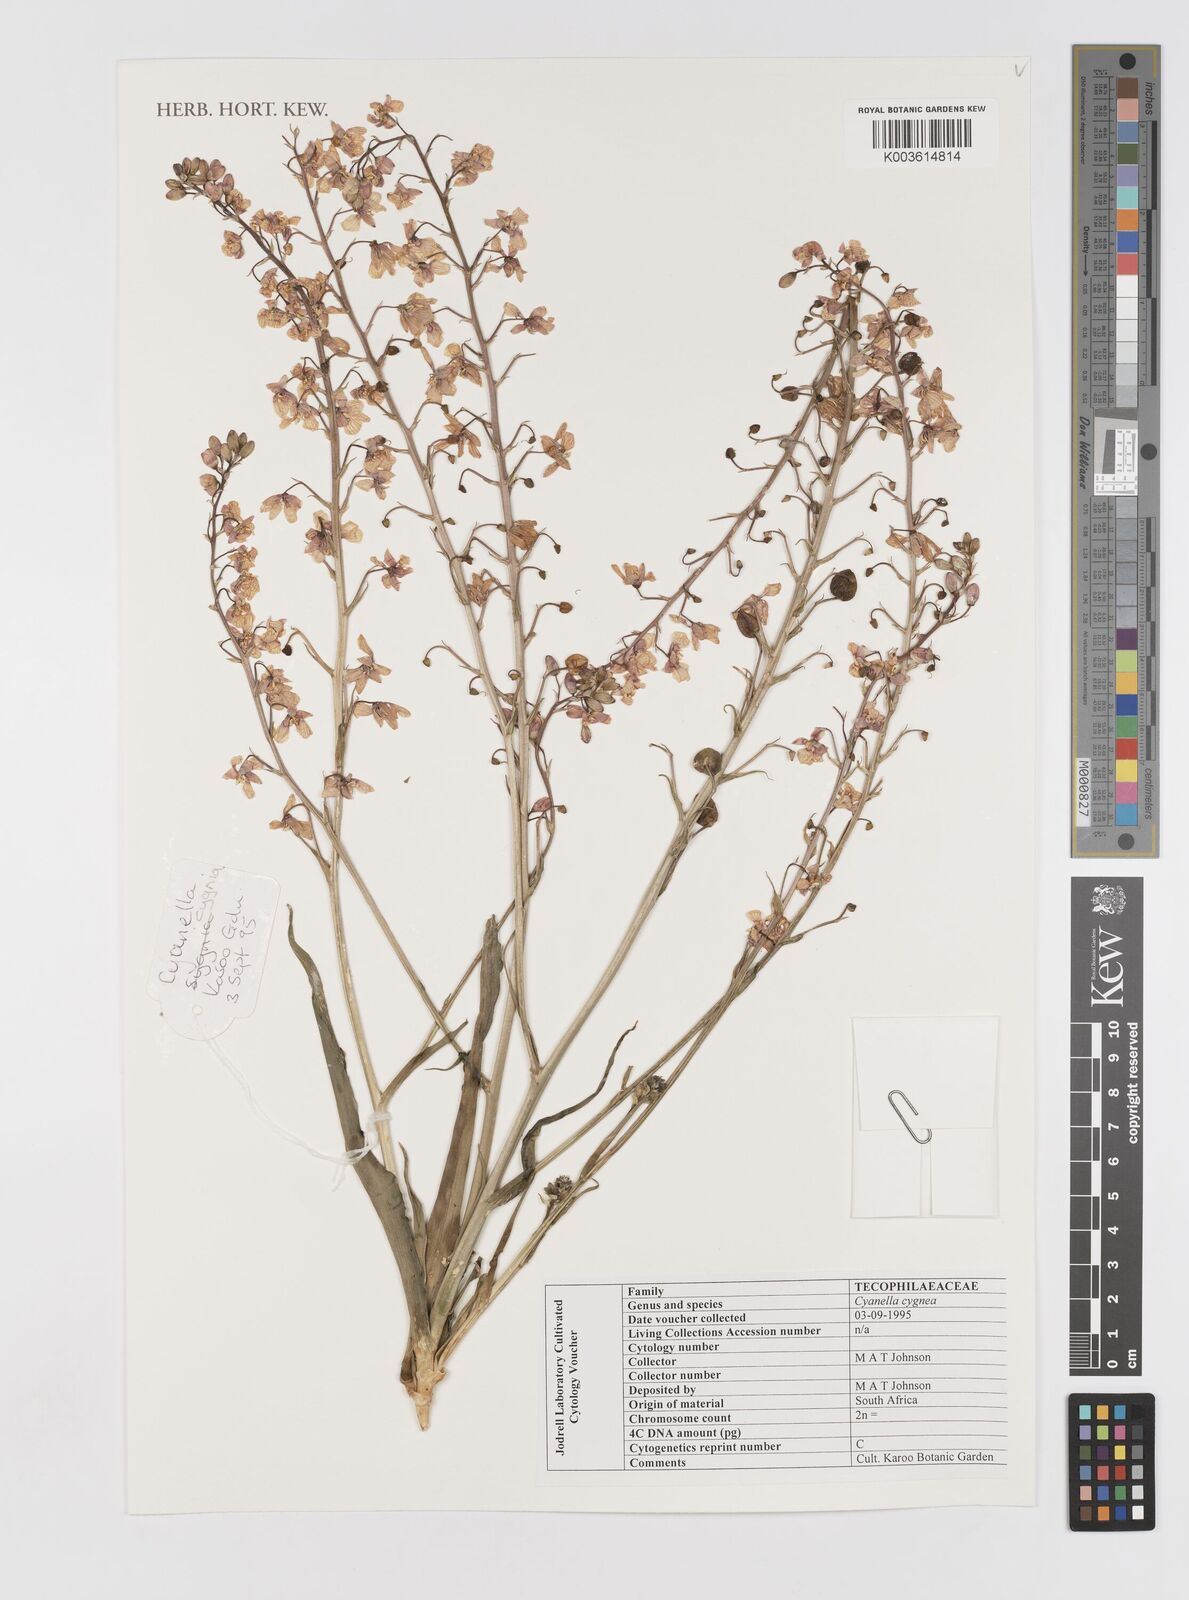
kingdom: Plantae
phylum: Tracheophyta
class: Liliopsida
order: Asparagales
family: Tecophilaeaceae
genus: Cyanella
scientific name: Cyanella cygnea
